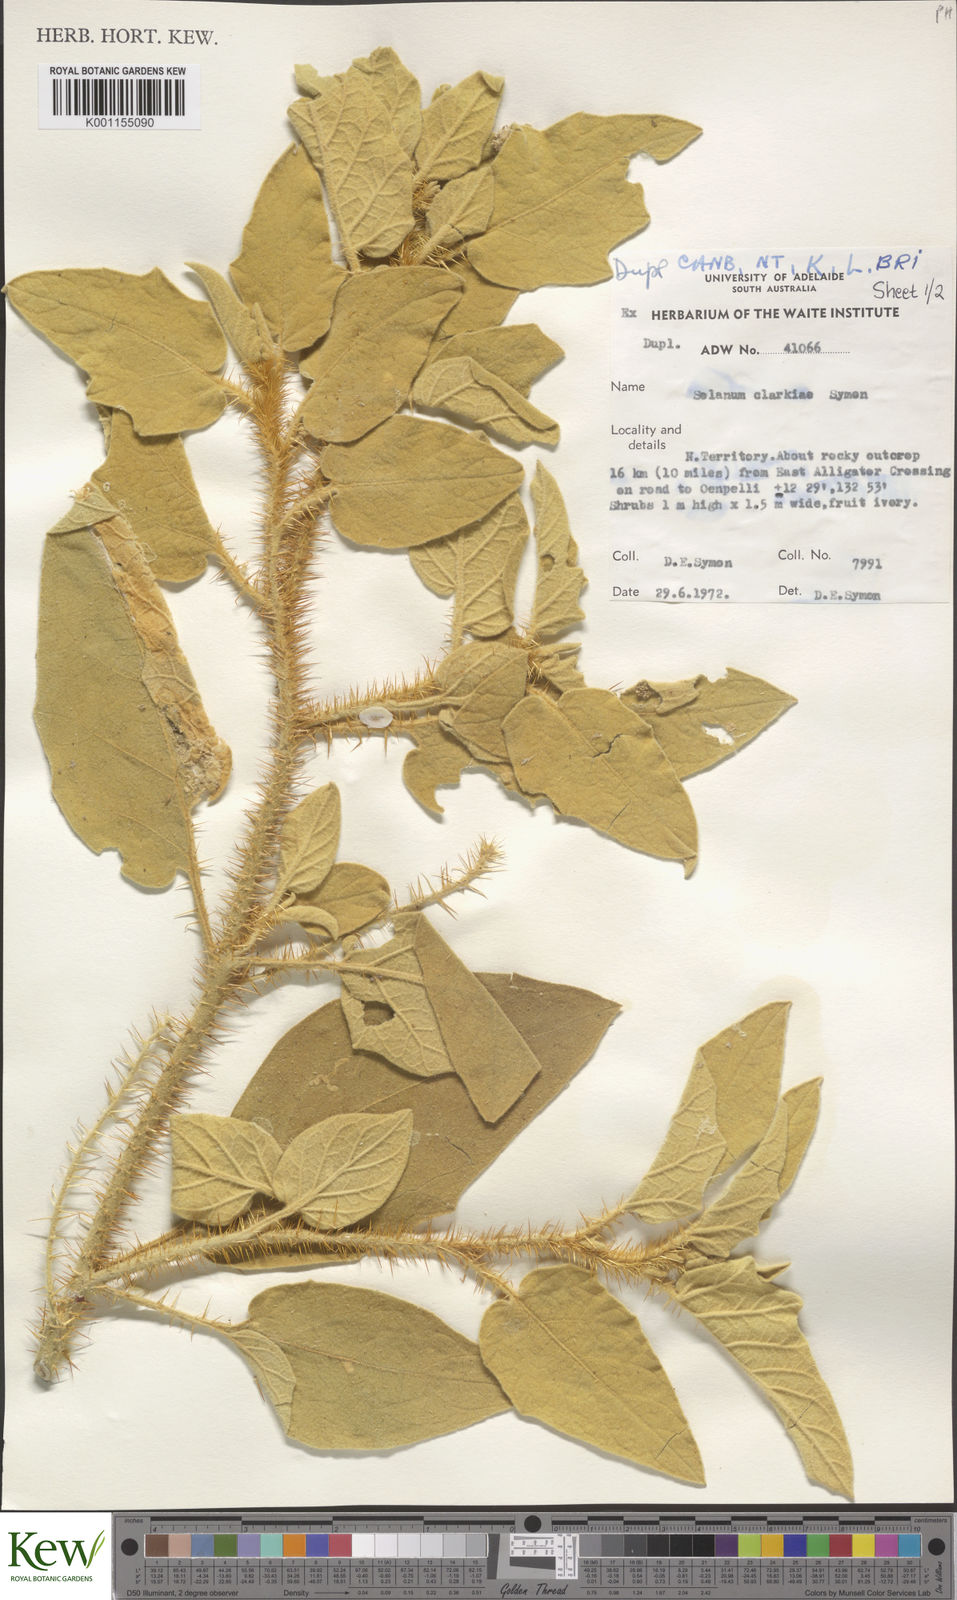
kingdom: Plantae
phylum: Tracheophyta
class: Magnoliopsida
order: Solanales
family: Solanaceae
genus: Solanum
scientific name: Solanum clarkiae
